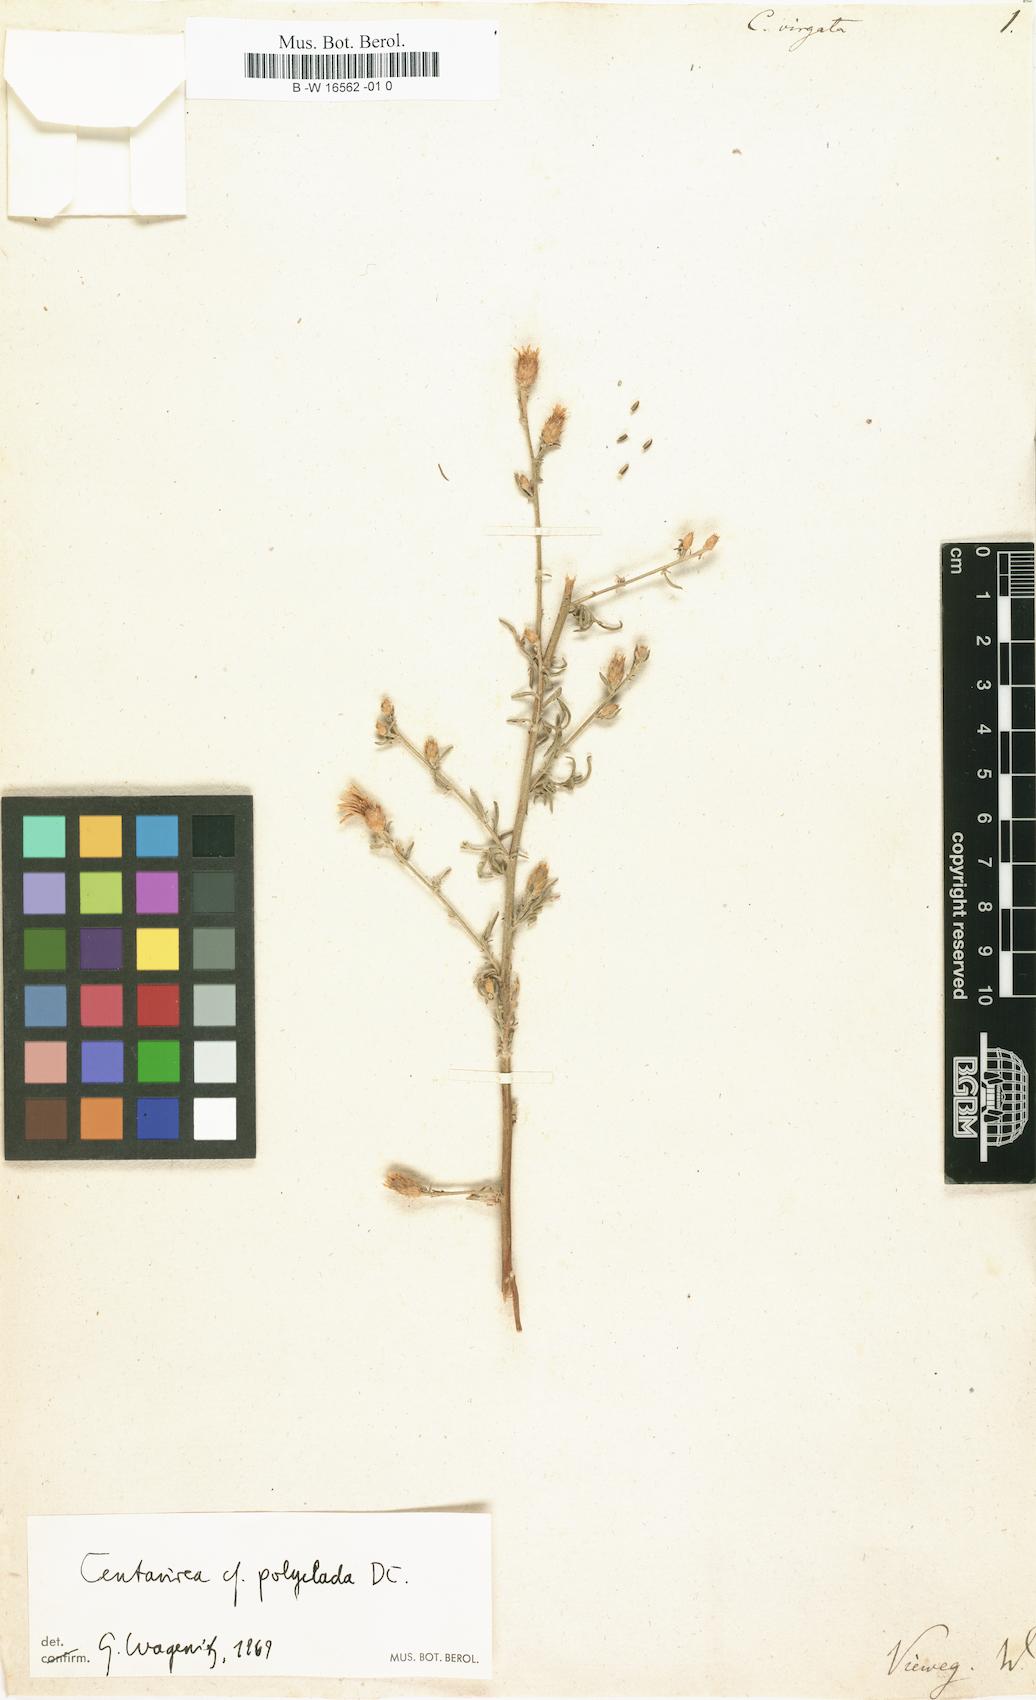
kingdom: Plantae
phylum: Tracheophyta
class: Magnoliopsida
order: Asterales
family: Asteraceae
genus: Centaurea
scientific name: Centaurea virgata
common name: Squarrose knapweed
